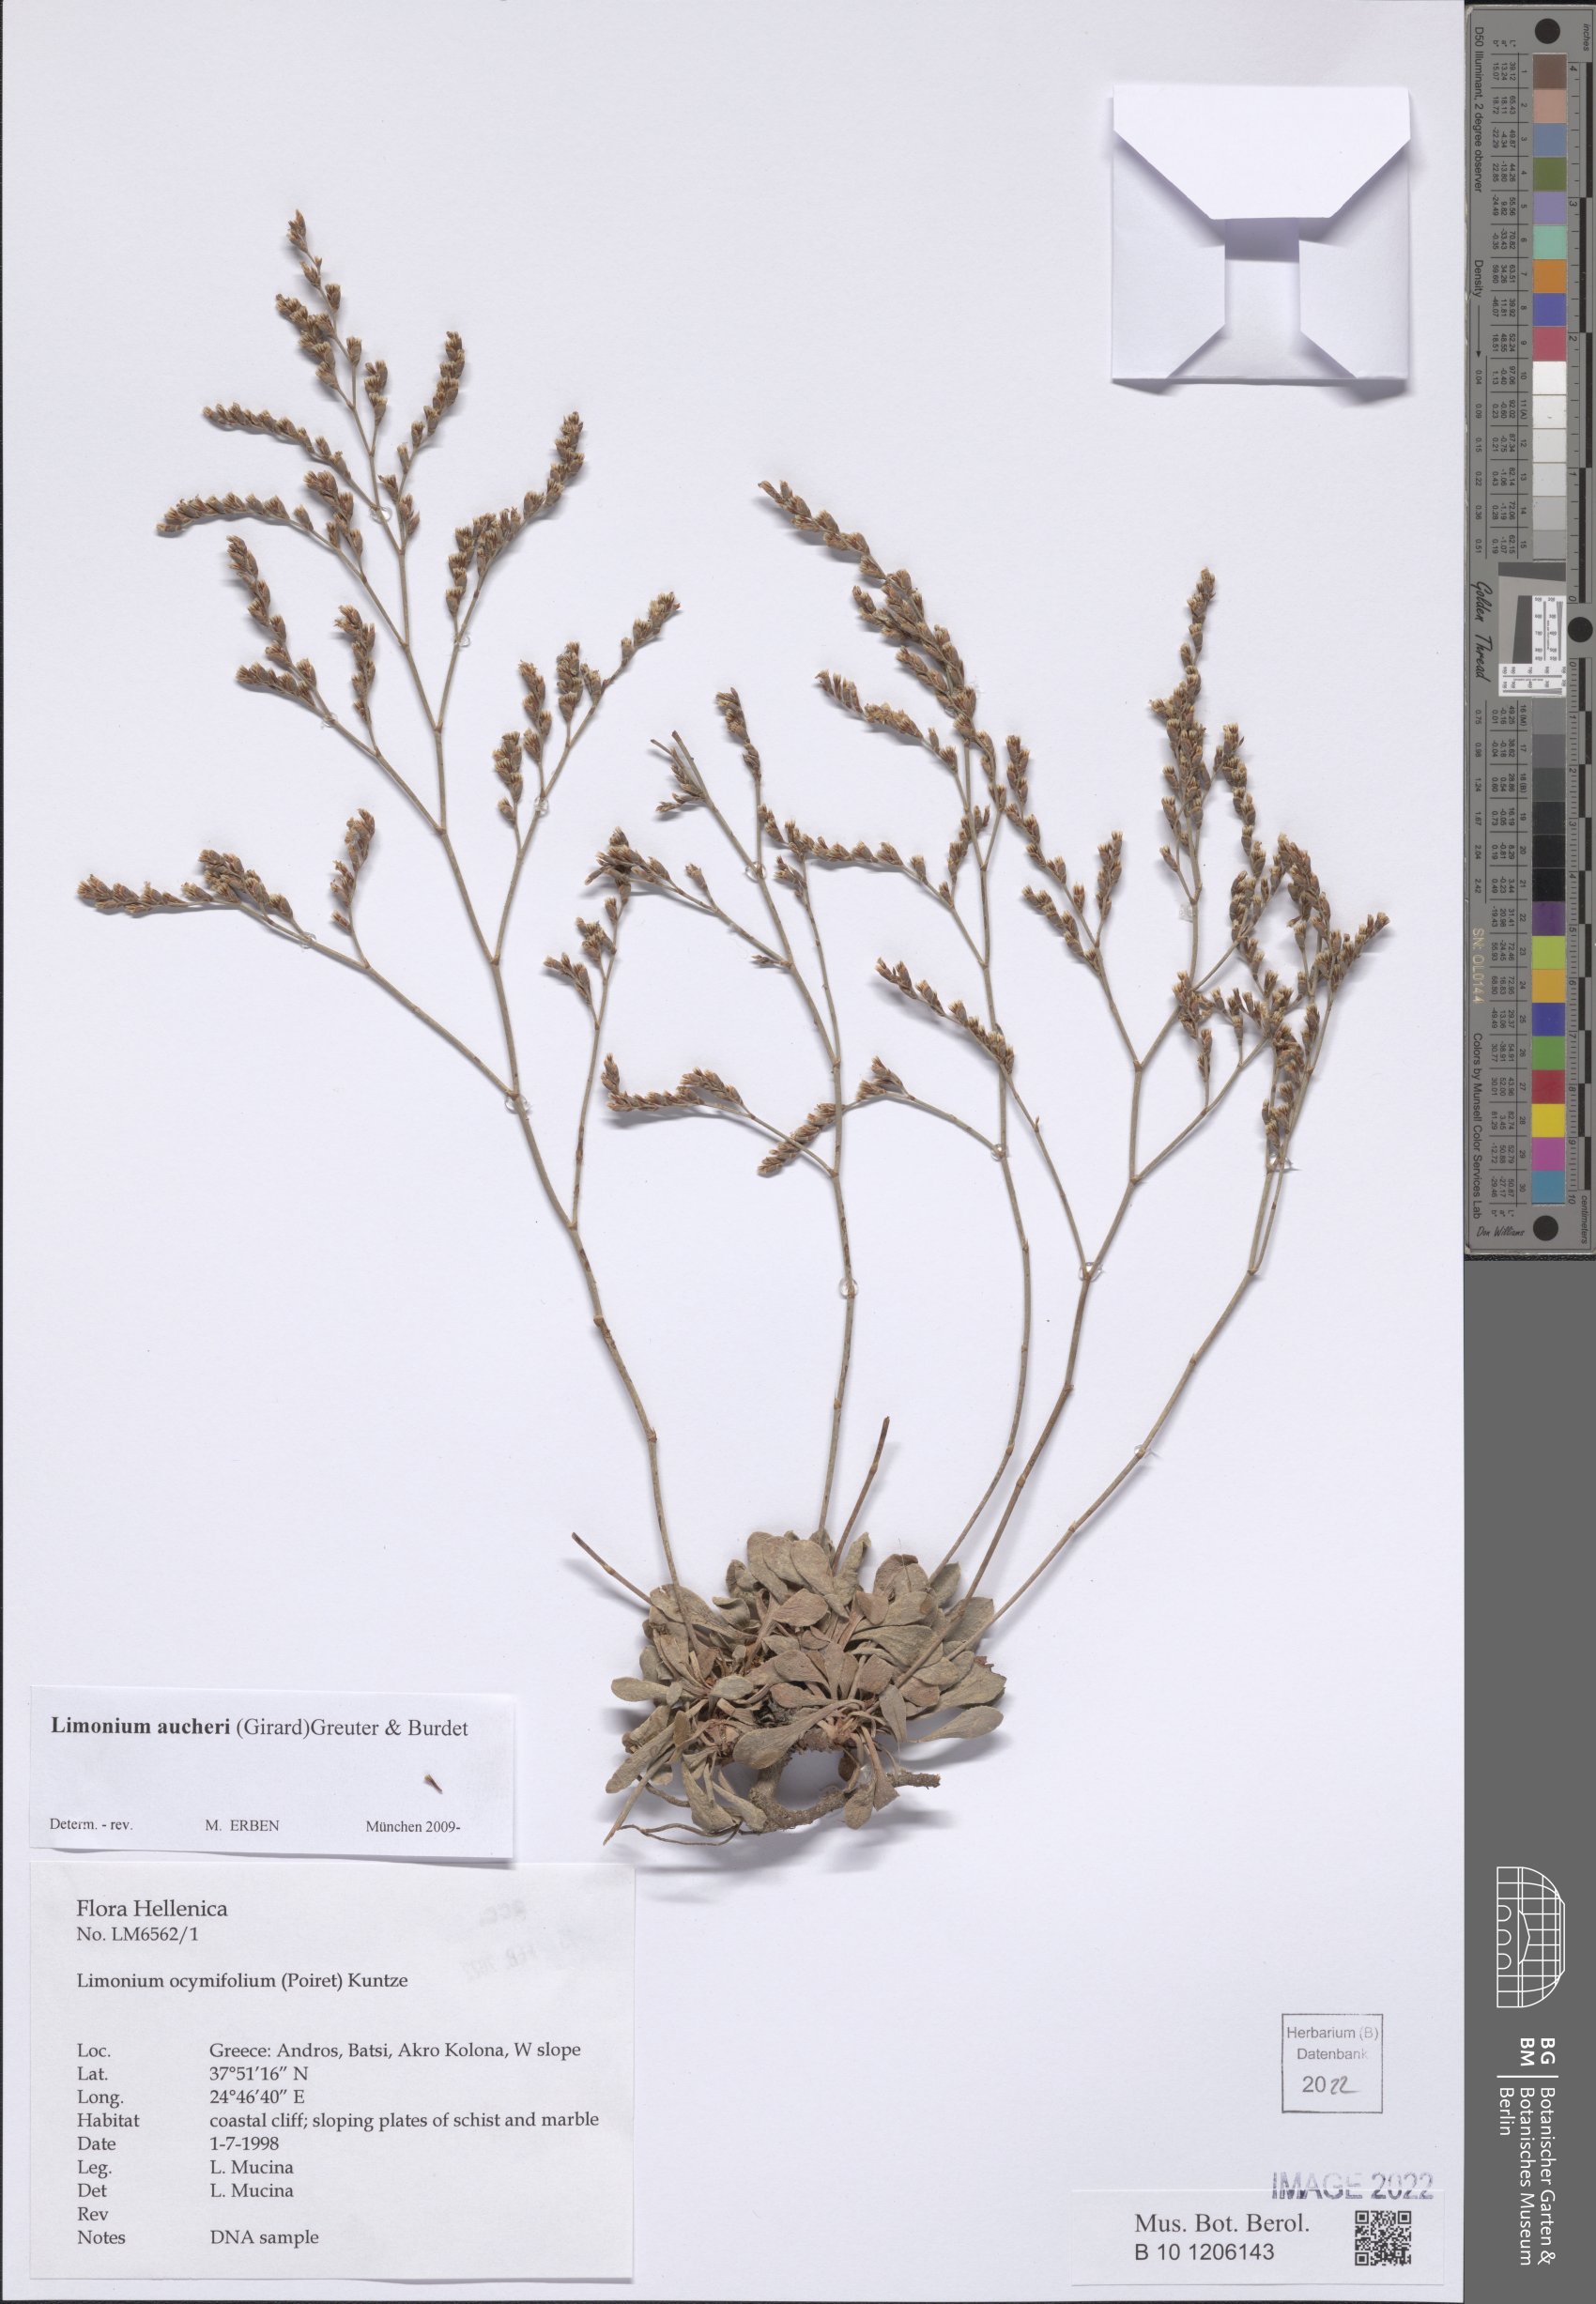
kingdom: Plantae
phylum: Tracheophyta
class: Magnoliopsida
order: Caryophyllales
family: Plumbaginaceae
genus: Limonium
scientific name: Limonium aucheri
